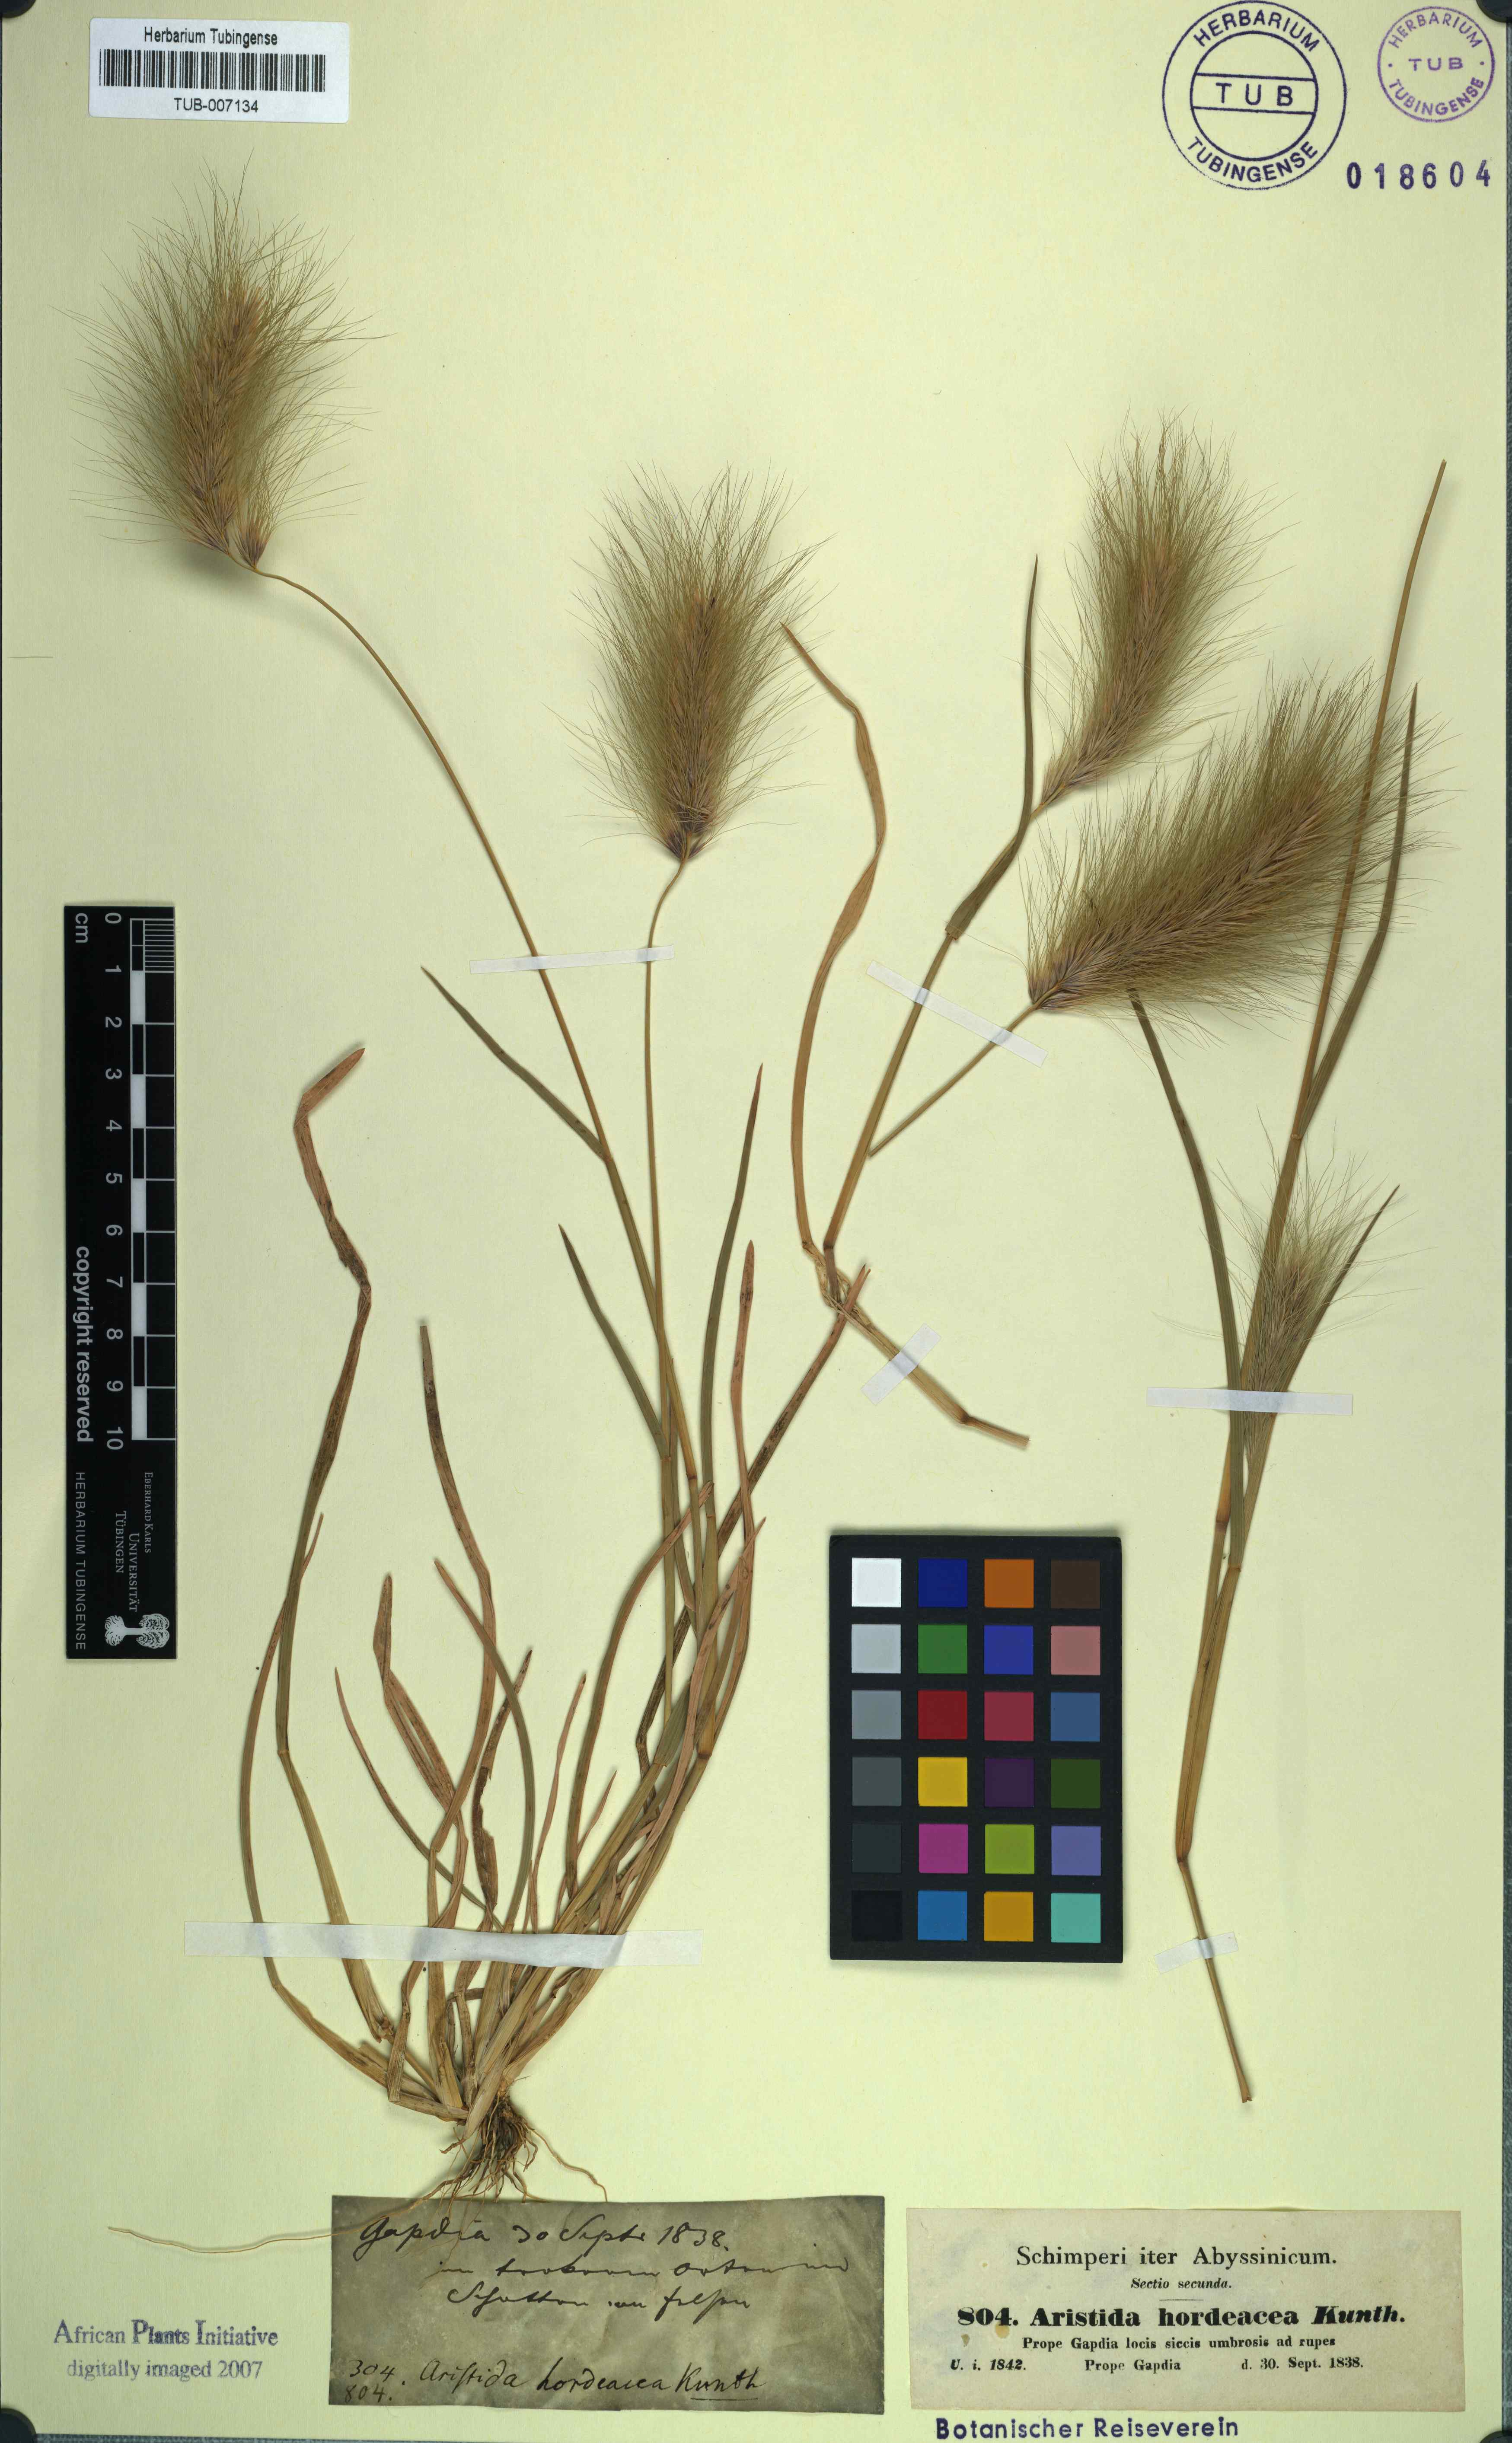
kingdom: Plantae
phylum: Tracheophyta
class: Liliopsida
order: Poales
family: Poaceae
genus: Aristida
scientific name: Aristida hordeacea
